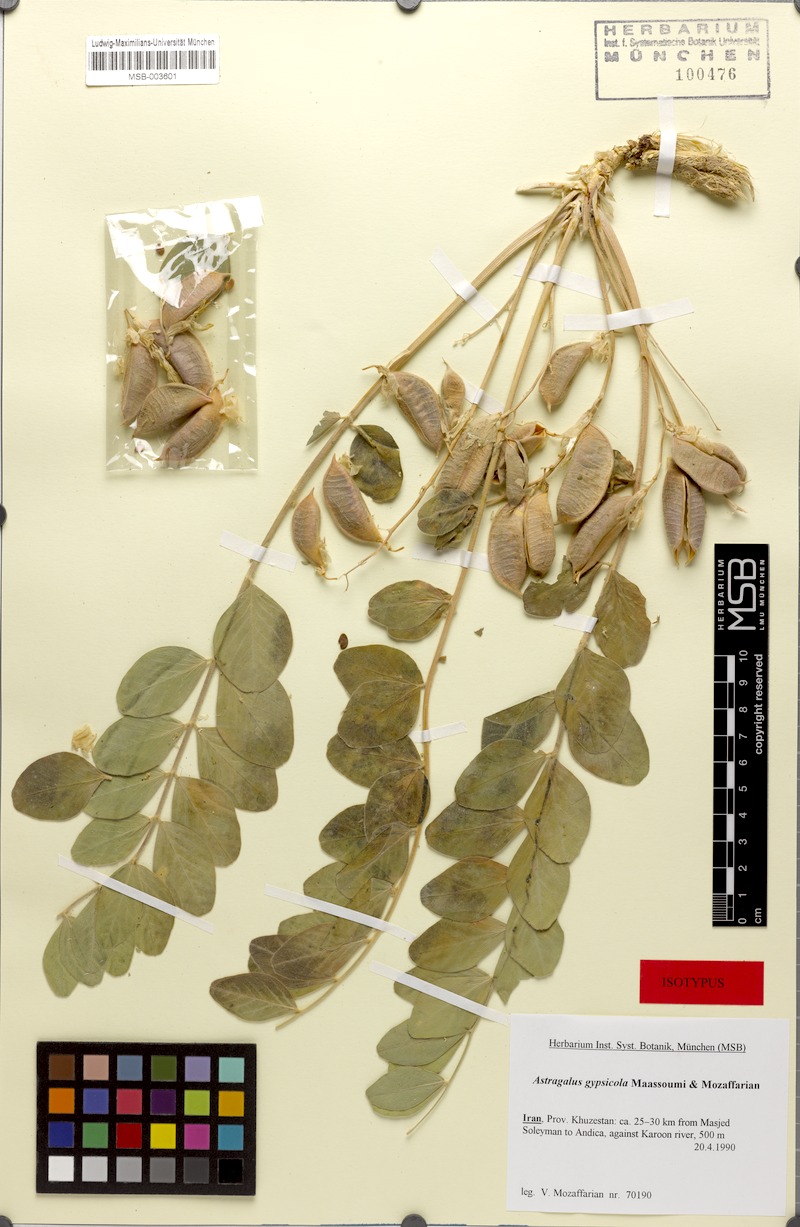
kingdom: Plantae
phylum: Tracheophyta
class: Magnoliopsida
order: Fabales
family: Fabaceae
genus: Astragalus
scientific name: Astragalus gypsicola
